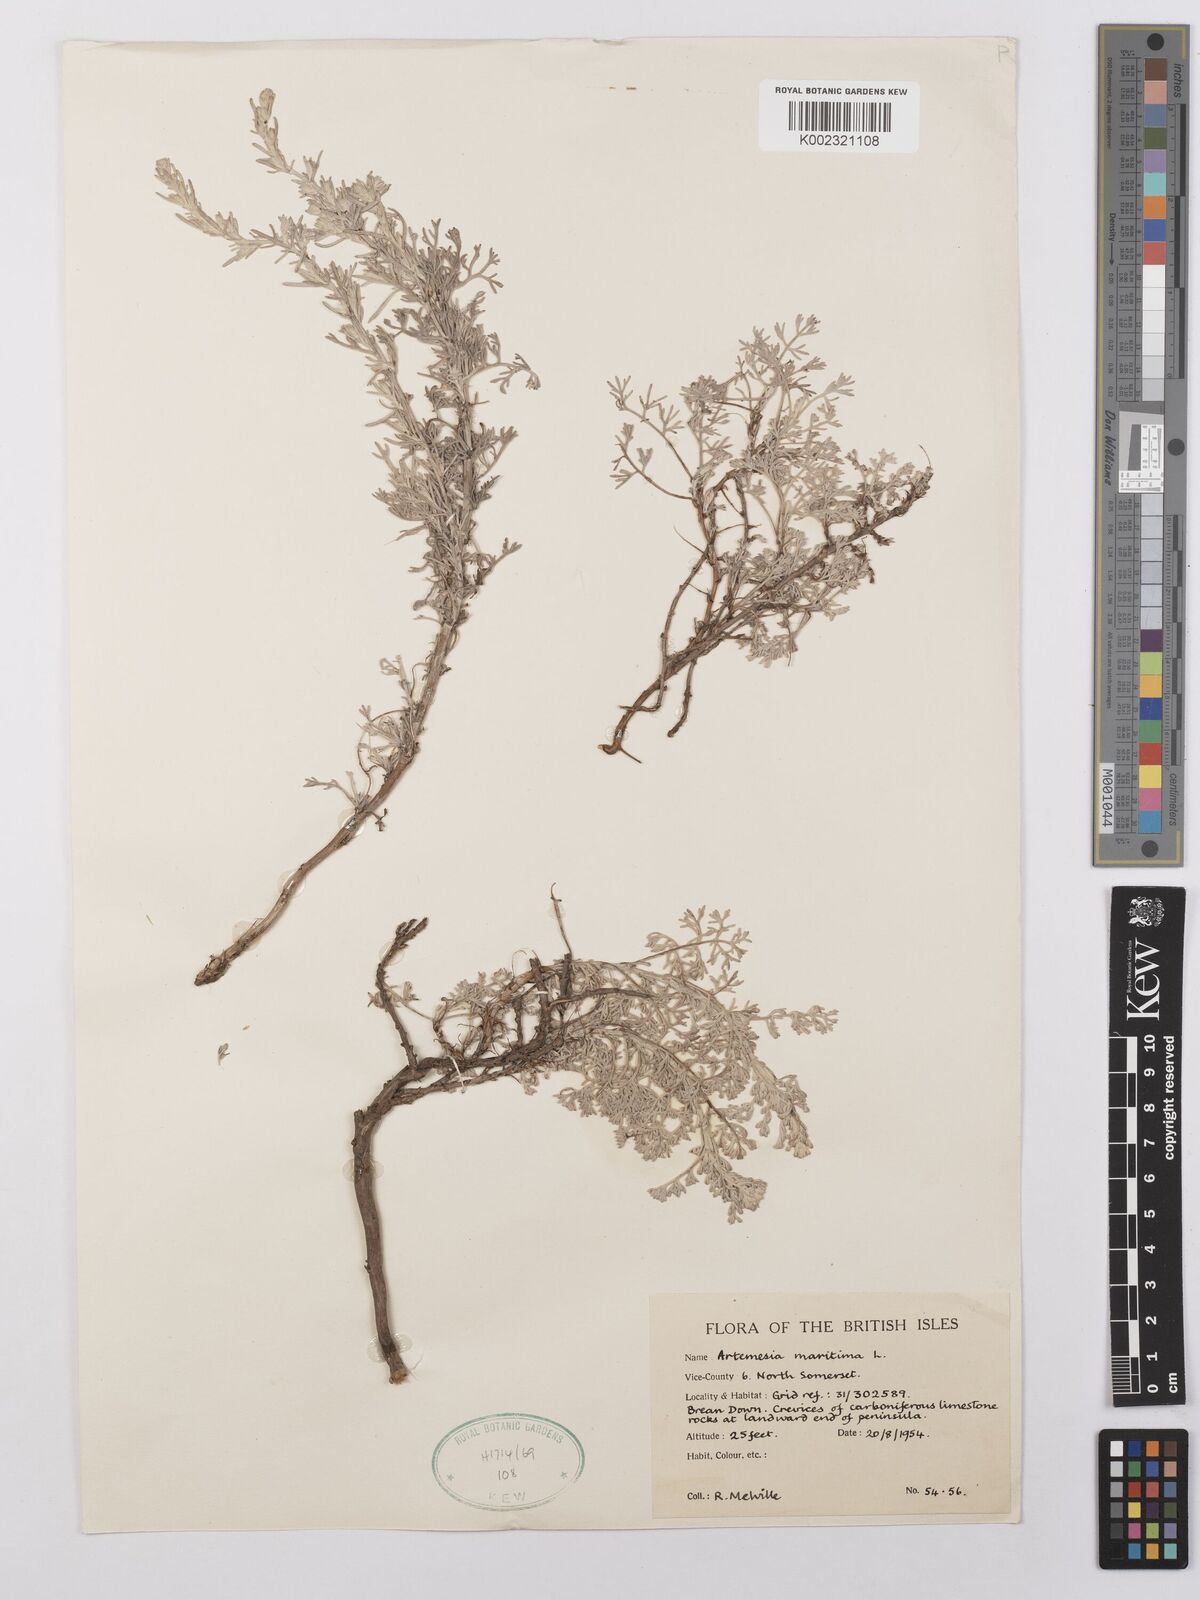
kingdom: Plantae
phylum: Tracheophyta
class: Magnoliopsida
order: Asterales
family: Asteraceae
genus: Artemisia
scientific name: Artemisia maritima
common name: Wormseed
